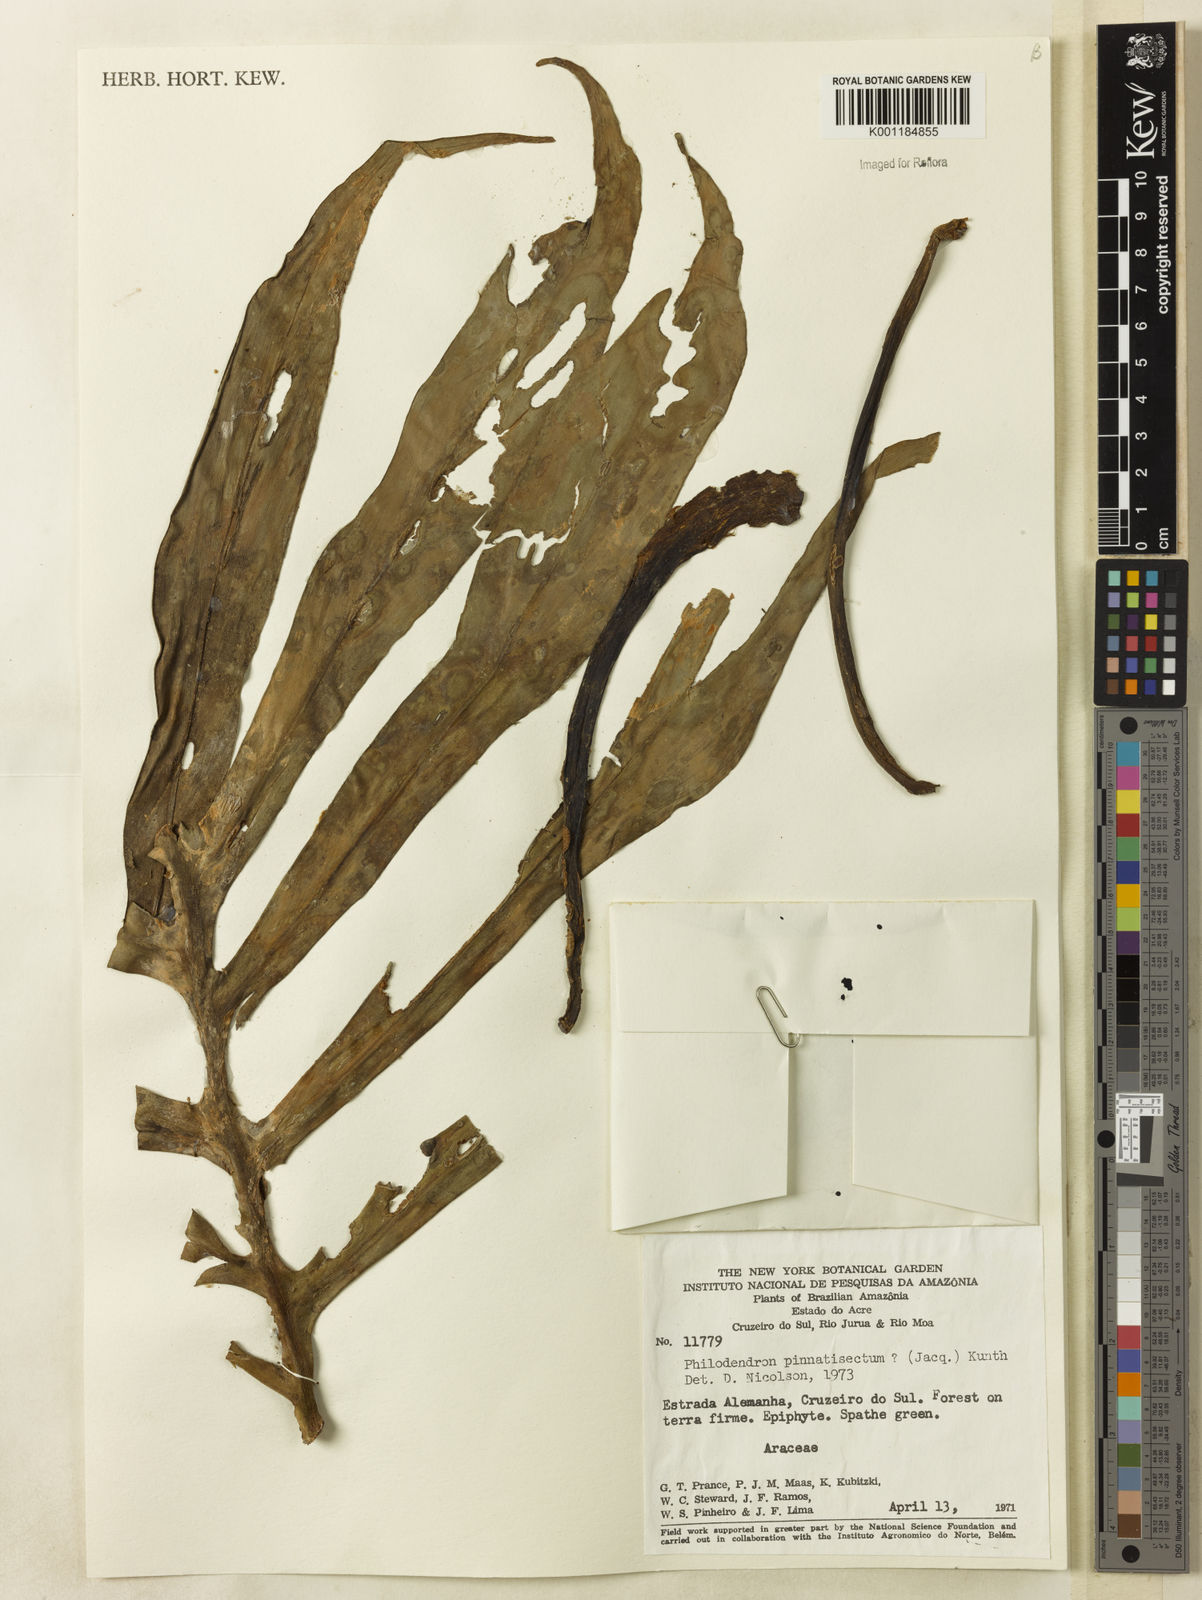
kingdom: Plantae
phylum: Tracheophyta
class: Liliopsida
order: Alismatales
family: Araceae
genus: Philodendron
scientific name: Philodendron
